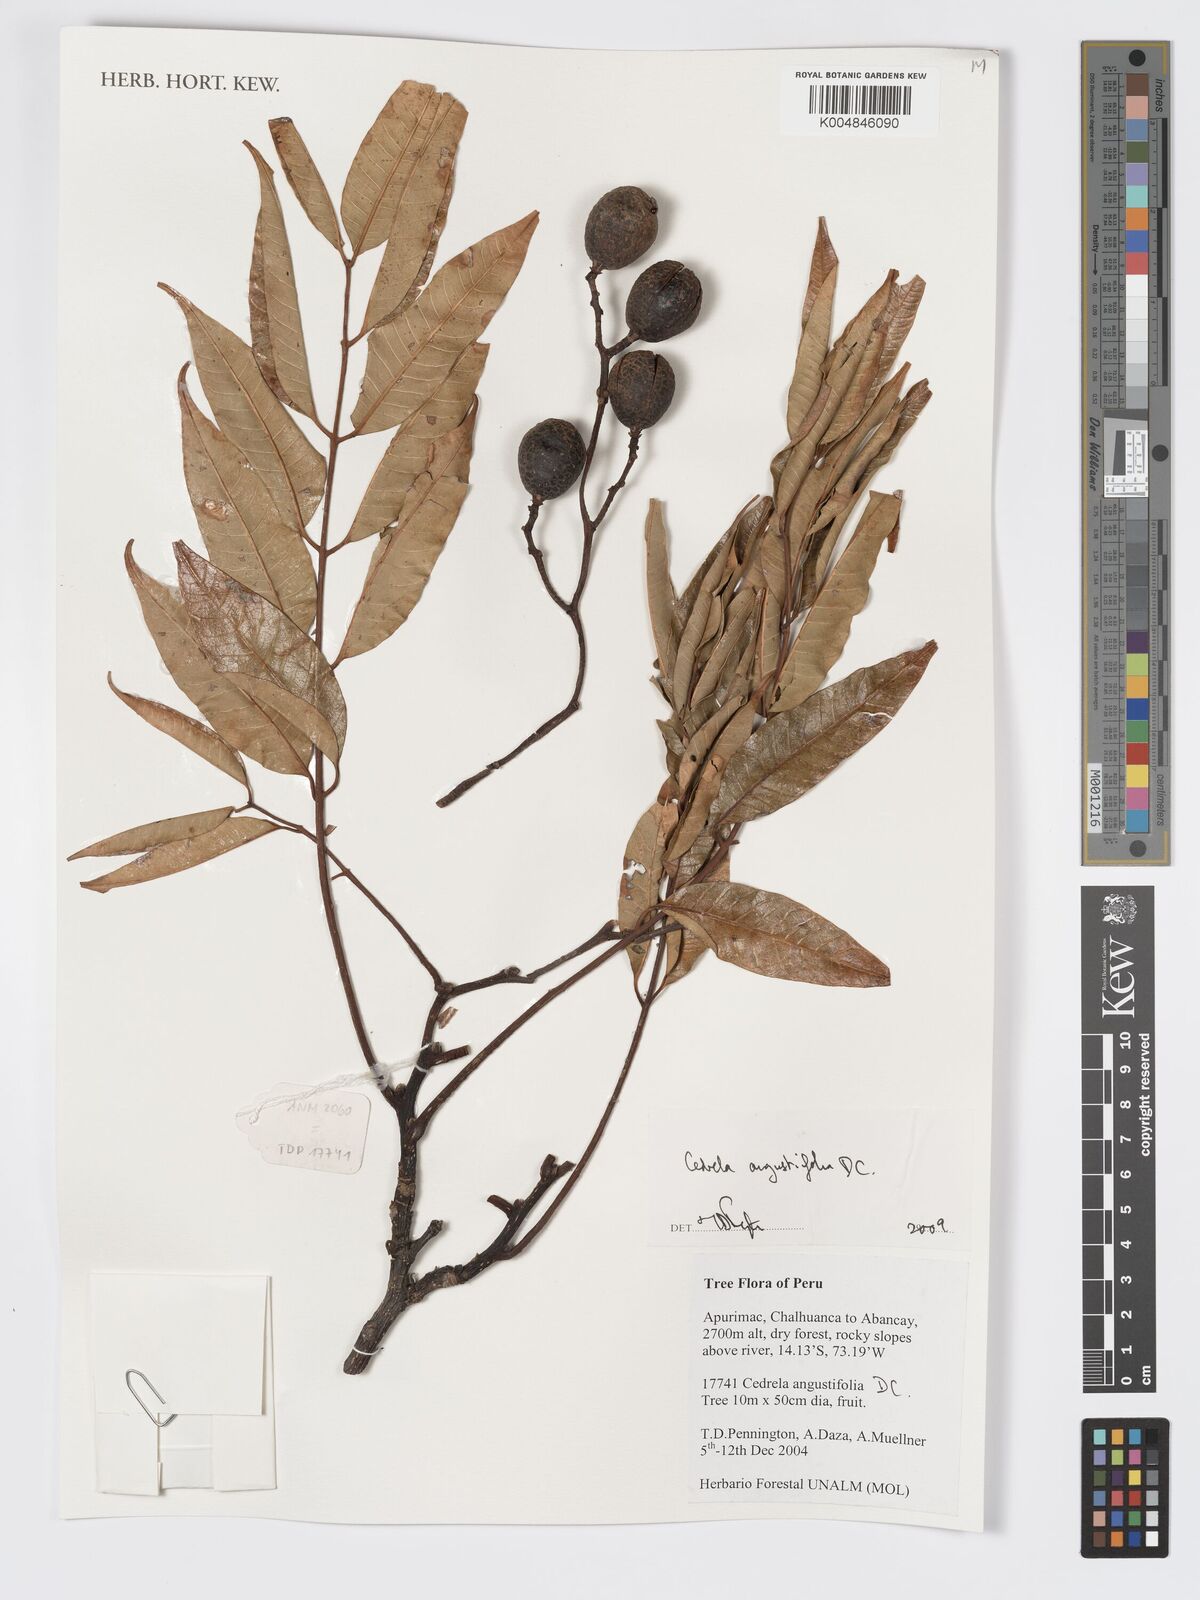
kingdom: Plantae
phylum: Tracheophyta
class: Magnoliopsida
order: Sapindales
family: Meliaceae
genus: Cedrela
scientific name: Cedrela odorata
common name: Red cedar
